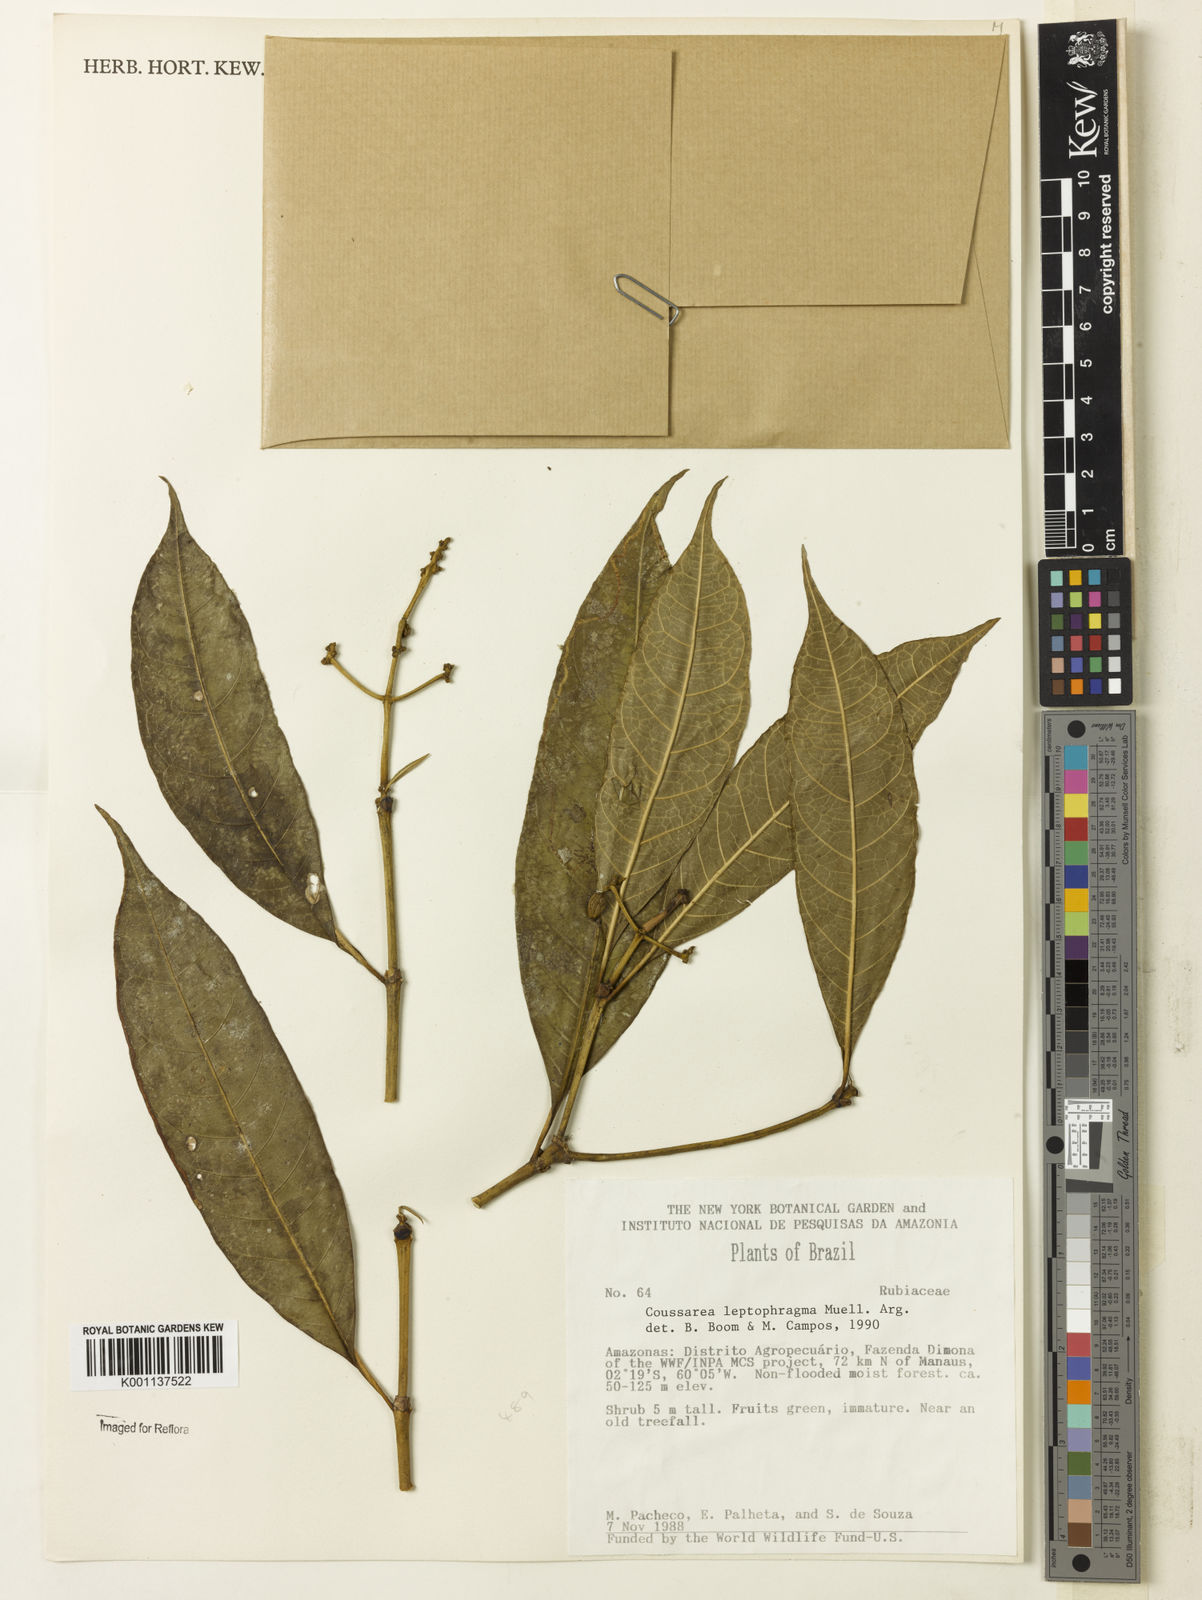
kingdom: Plantae
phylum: Tracheophyta
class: Magnoliopsida
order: Gentianales
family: Rubiaceae
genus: Coussarea
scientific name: Coussarea
